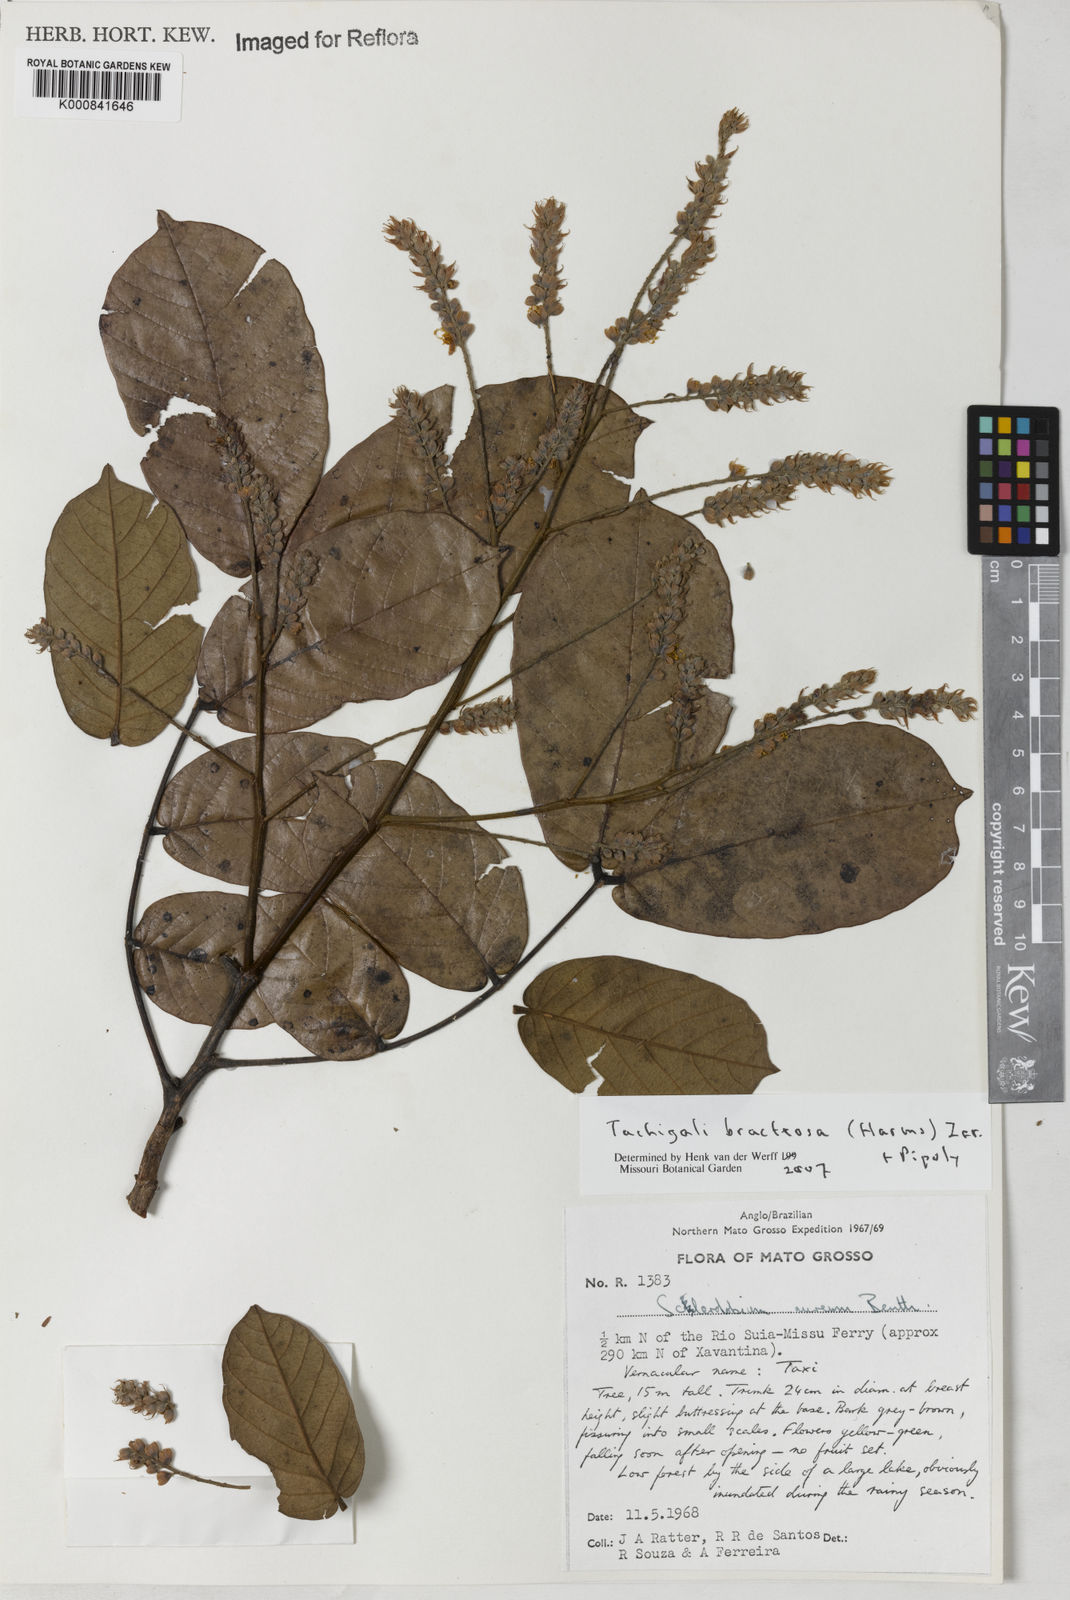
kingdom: Plantae
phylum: Tracheophyta
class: Magnoliopsida
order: Fabales
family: Fabaceae
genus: Tachigali
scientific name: Tachigali bracteosa
